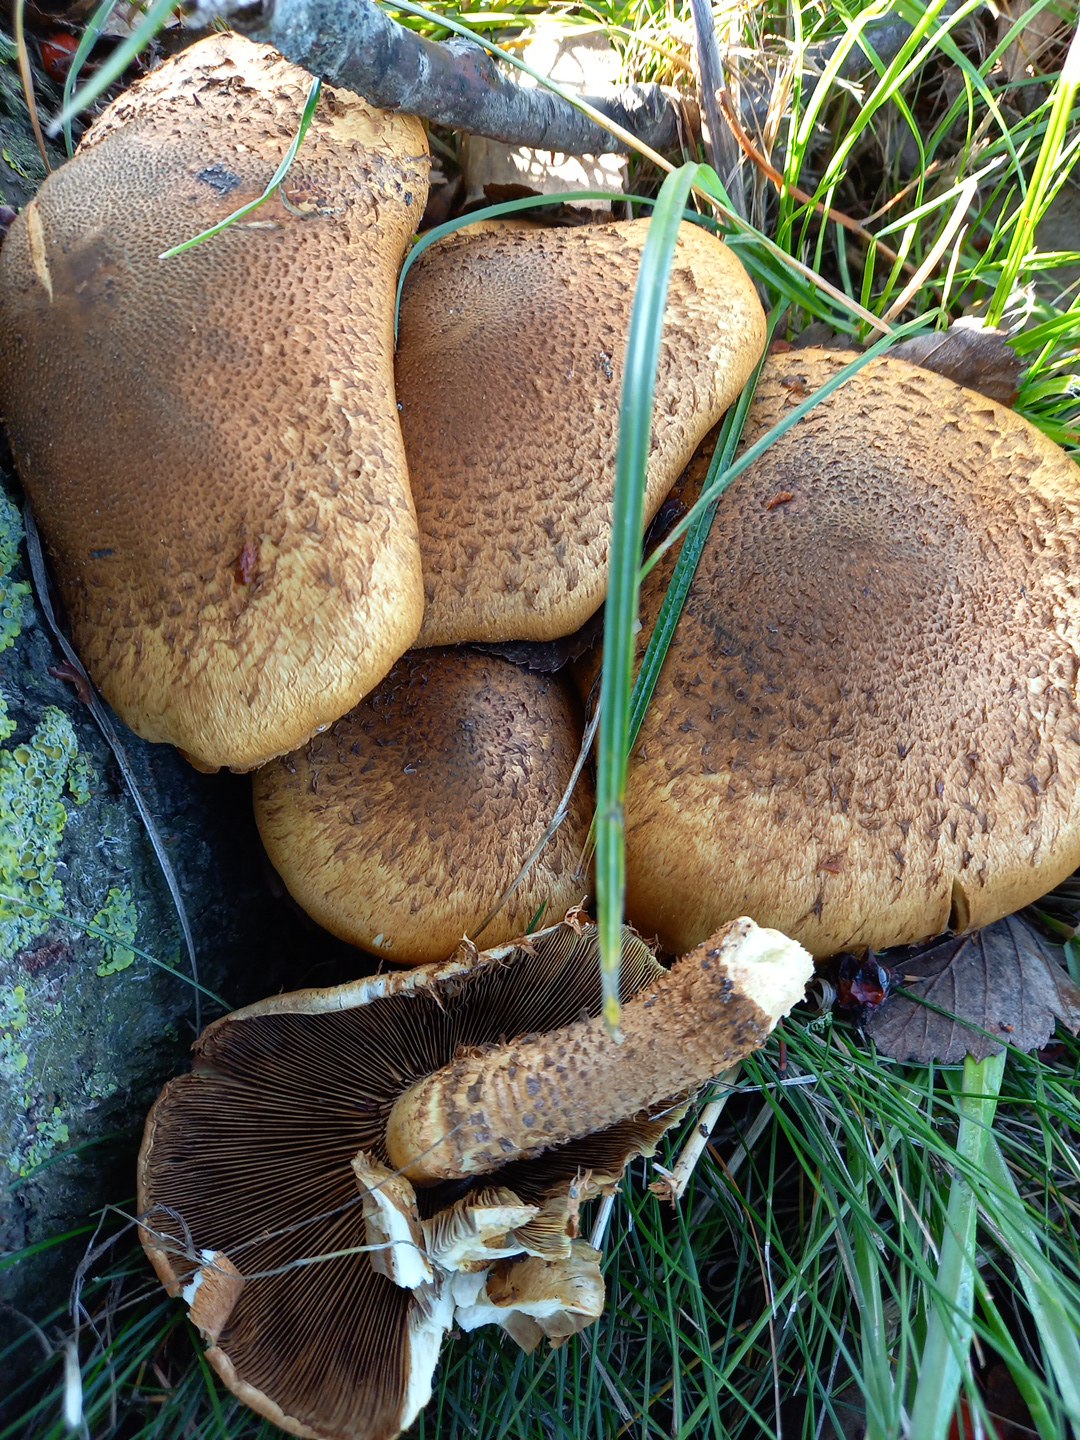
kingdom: Fungi
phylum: Basidiomycota
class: Agaricomycetes
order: Agaricales
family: Strophariaceae
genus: Pholiota
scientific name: Pholiota squarrosa
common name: krumskællet skælhat
